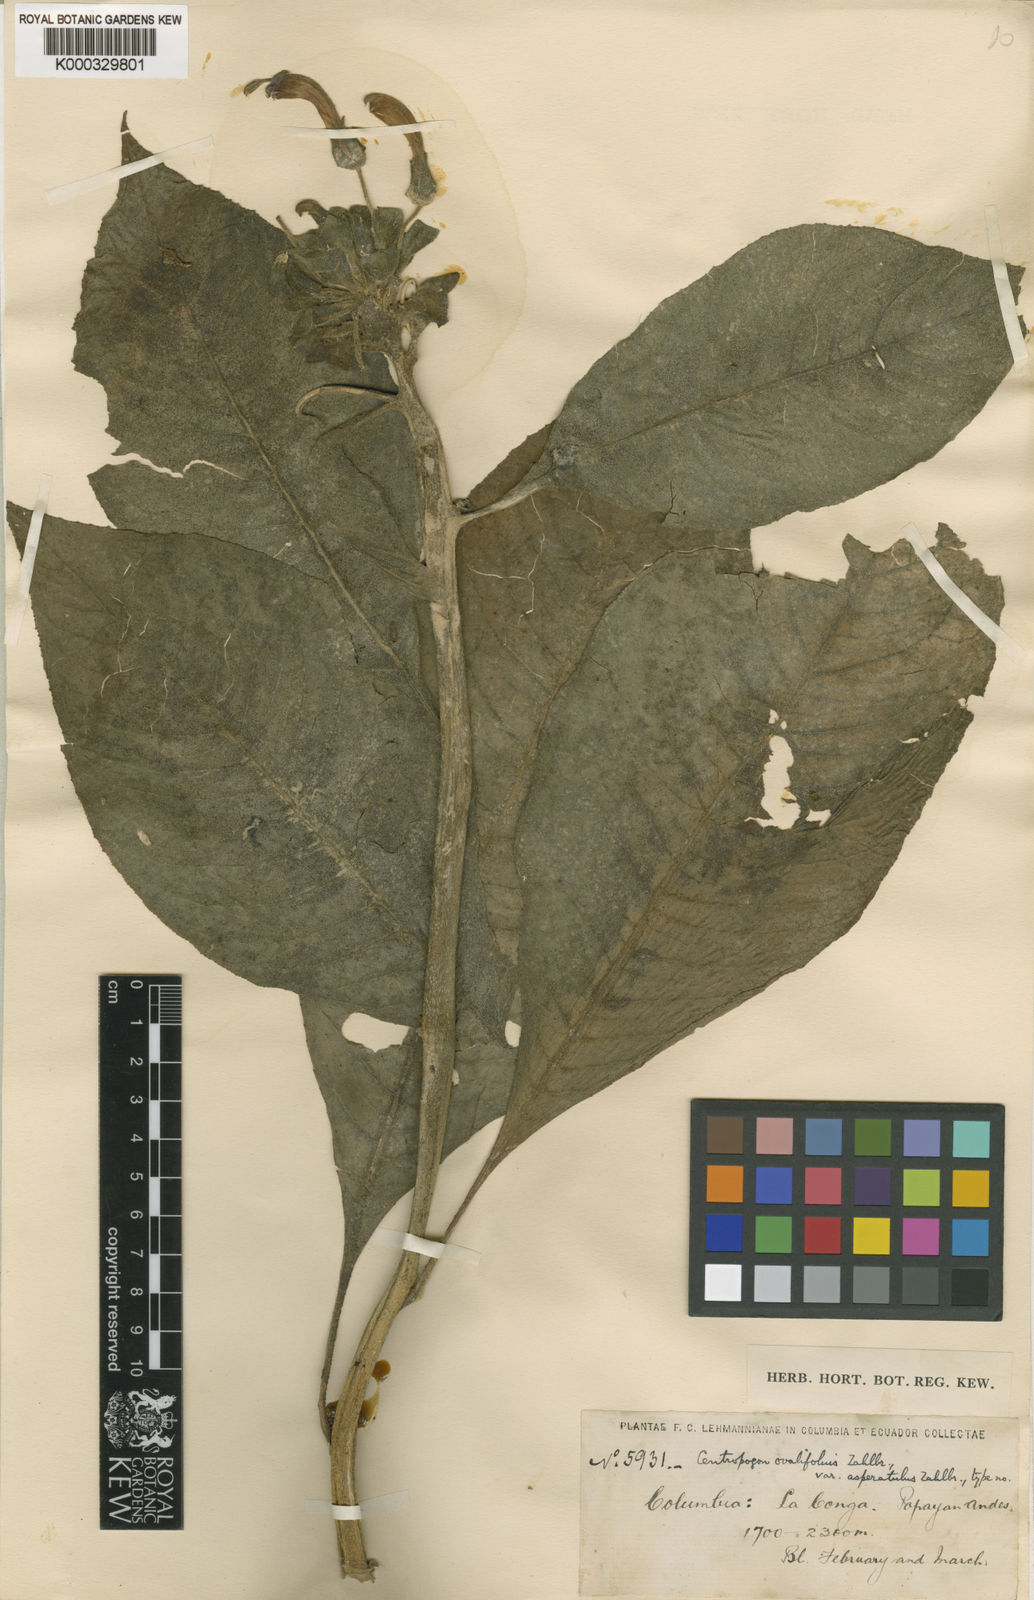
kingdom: Plantae
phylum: Tracheophyta
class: Magnoliopsida
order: Asterales
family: Campanulaceae
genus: Centropogon
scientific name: Centropogon congestus
